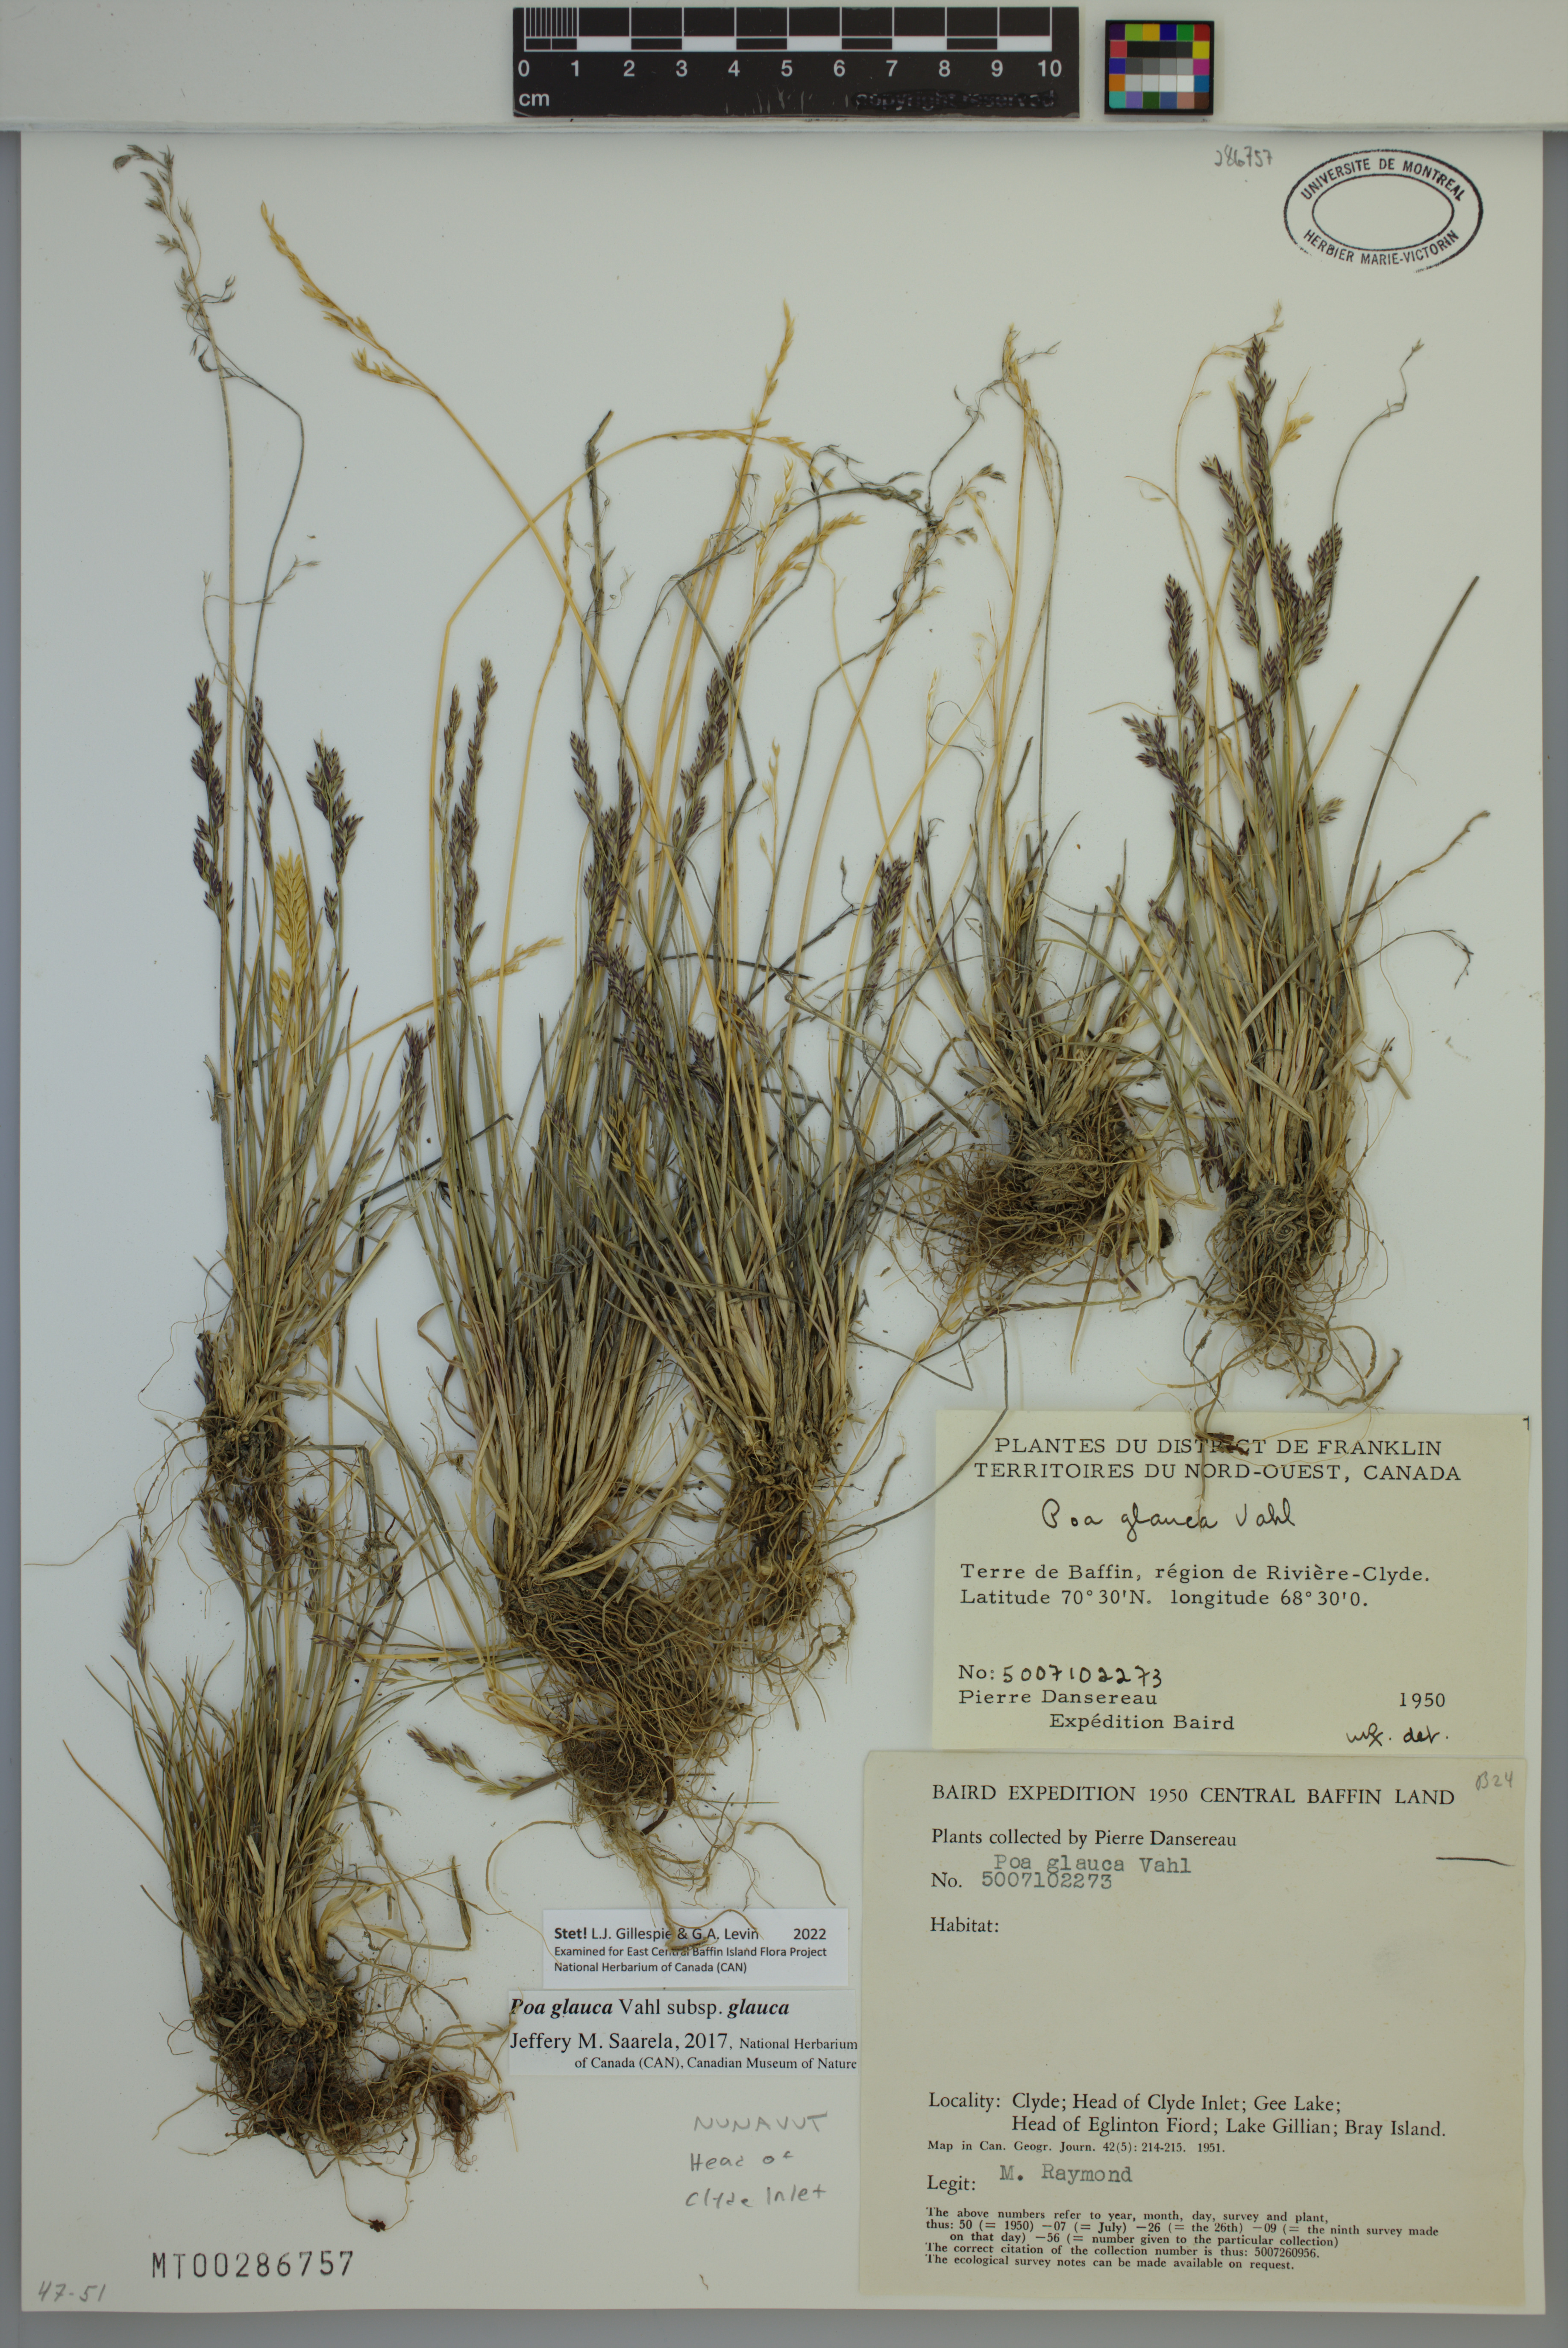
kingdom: Plantae
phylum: Tracheophyta
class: Liliopsida
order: Poales
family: Poaceae
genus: Poa
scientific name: Poa glauca
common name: Glaucous bluegrass
